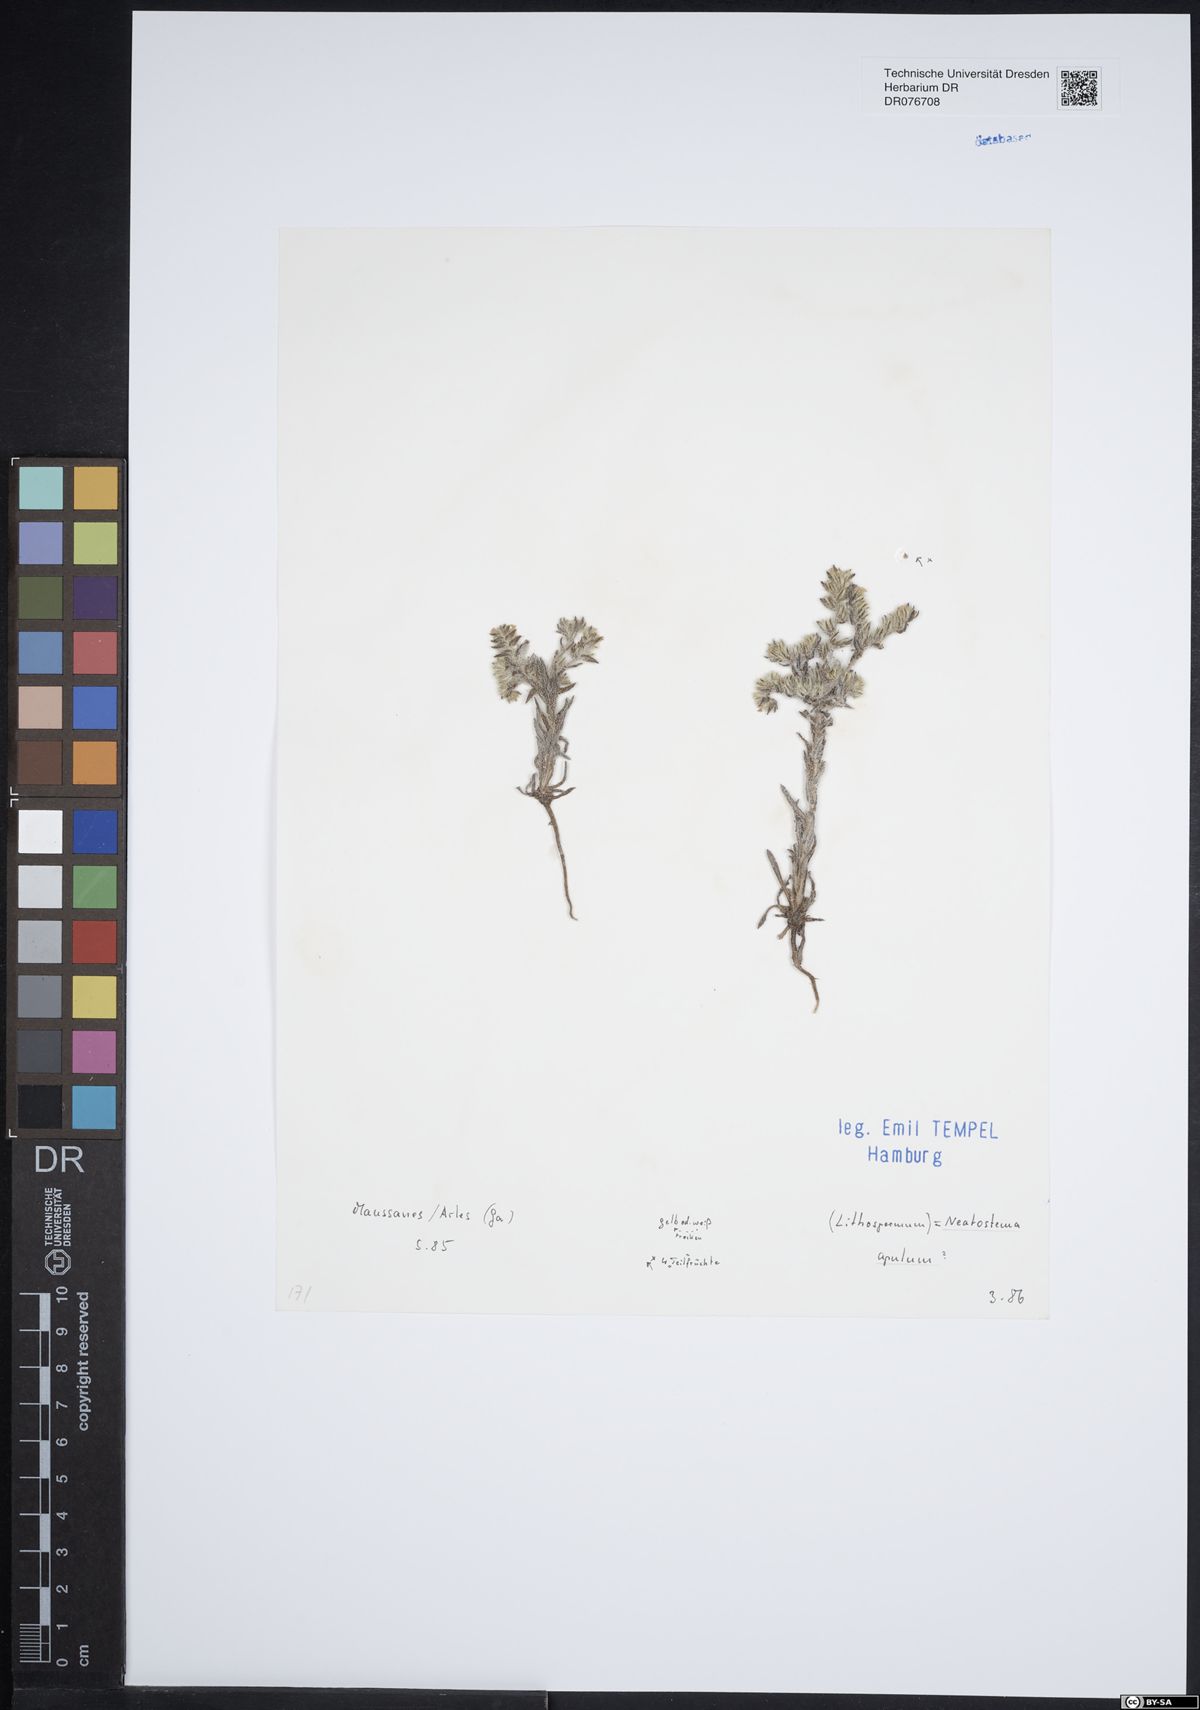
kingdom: Plantae
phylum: Tracheophyta
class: Magnoliopsida
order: Boraginales
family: Boraginaceae
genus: Neatostema
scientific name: Neatostema apulum
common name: Hairy sheepweed
